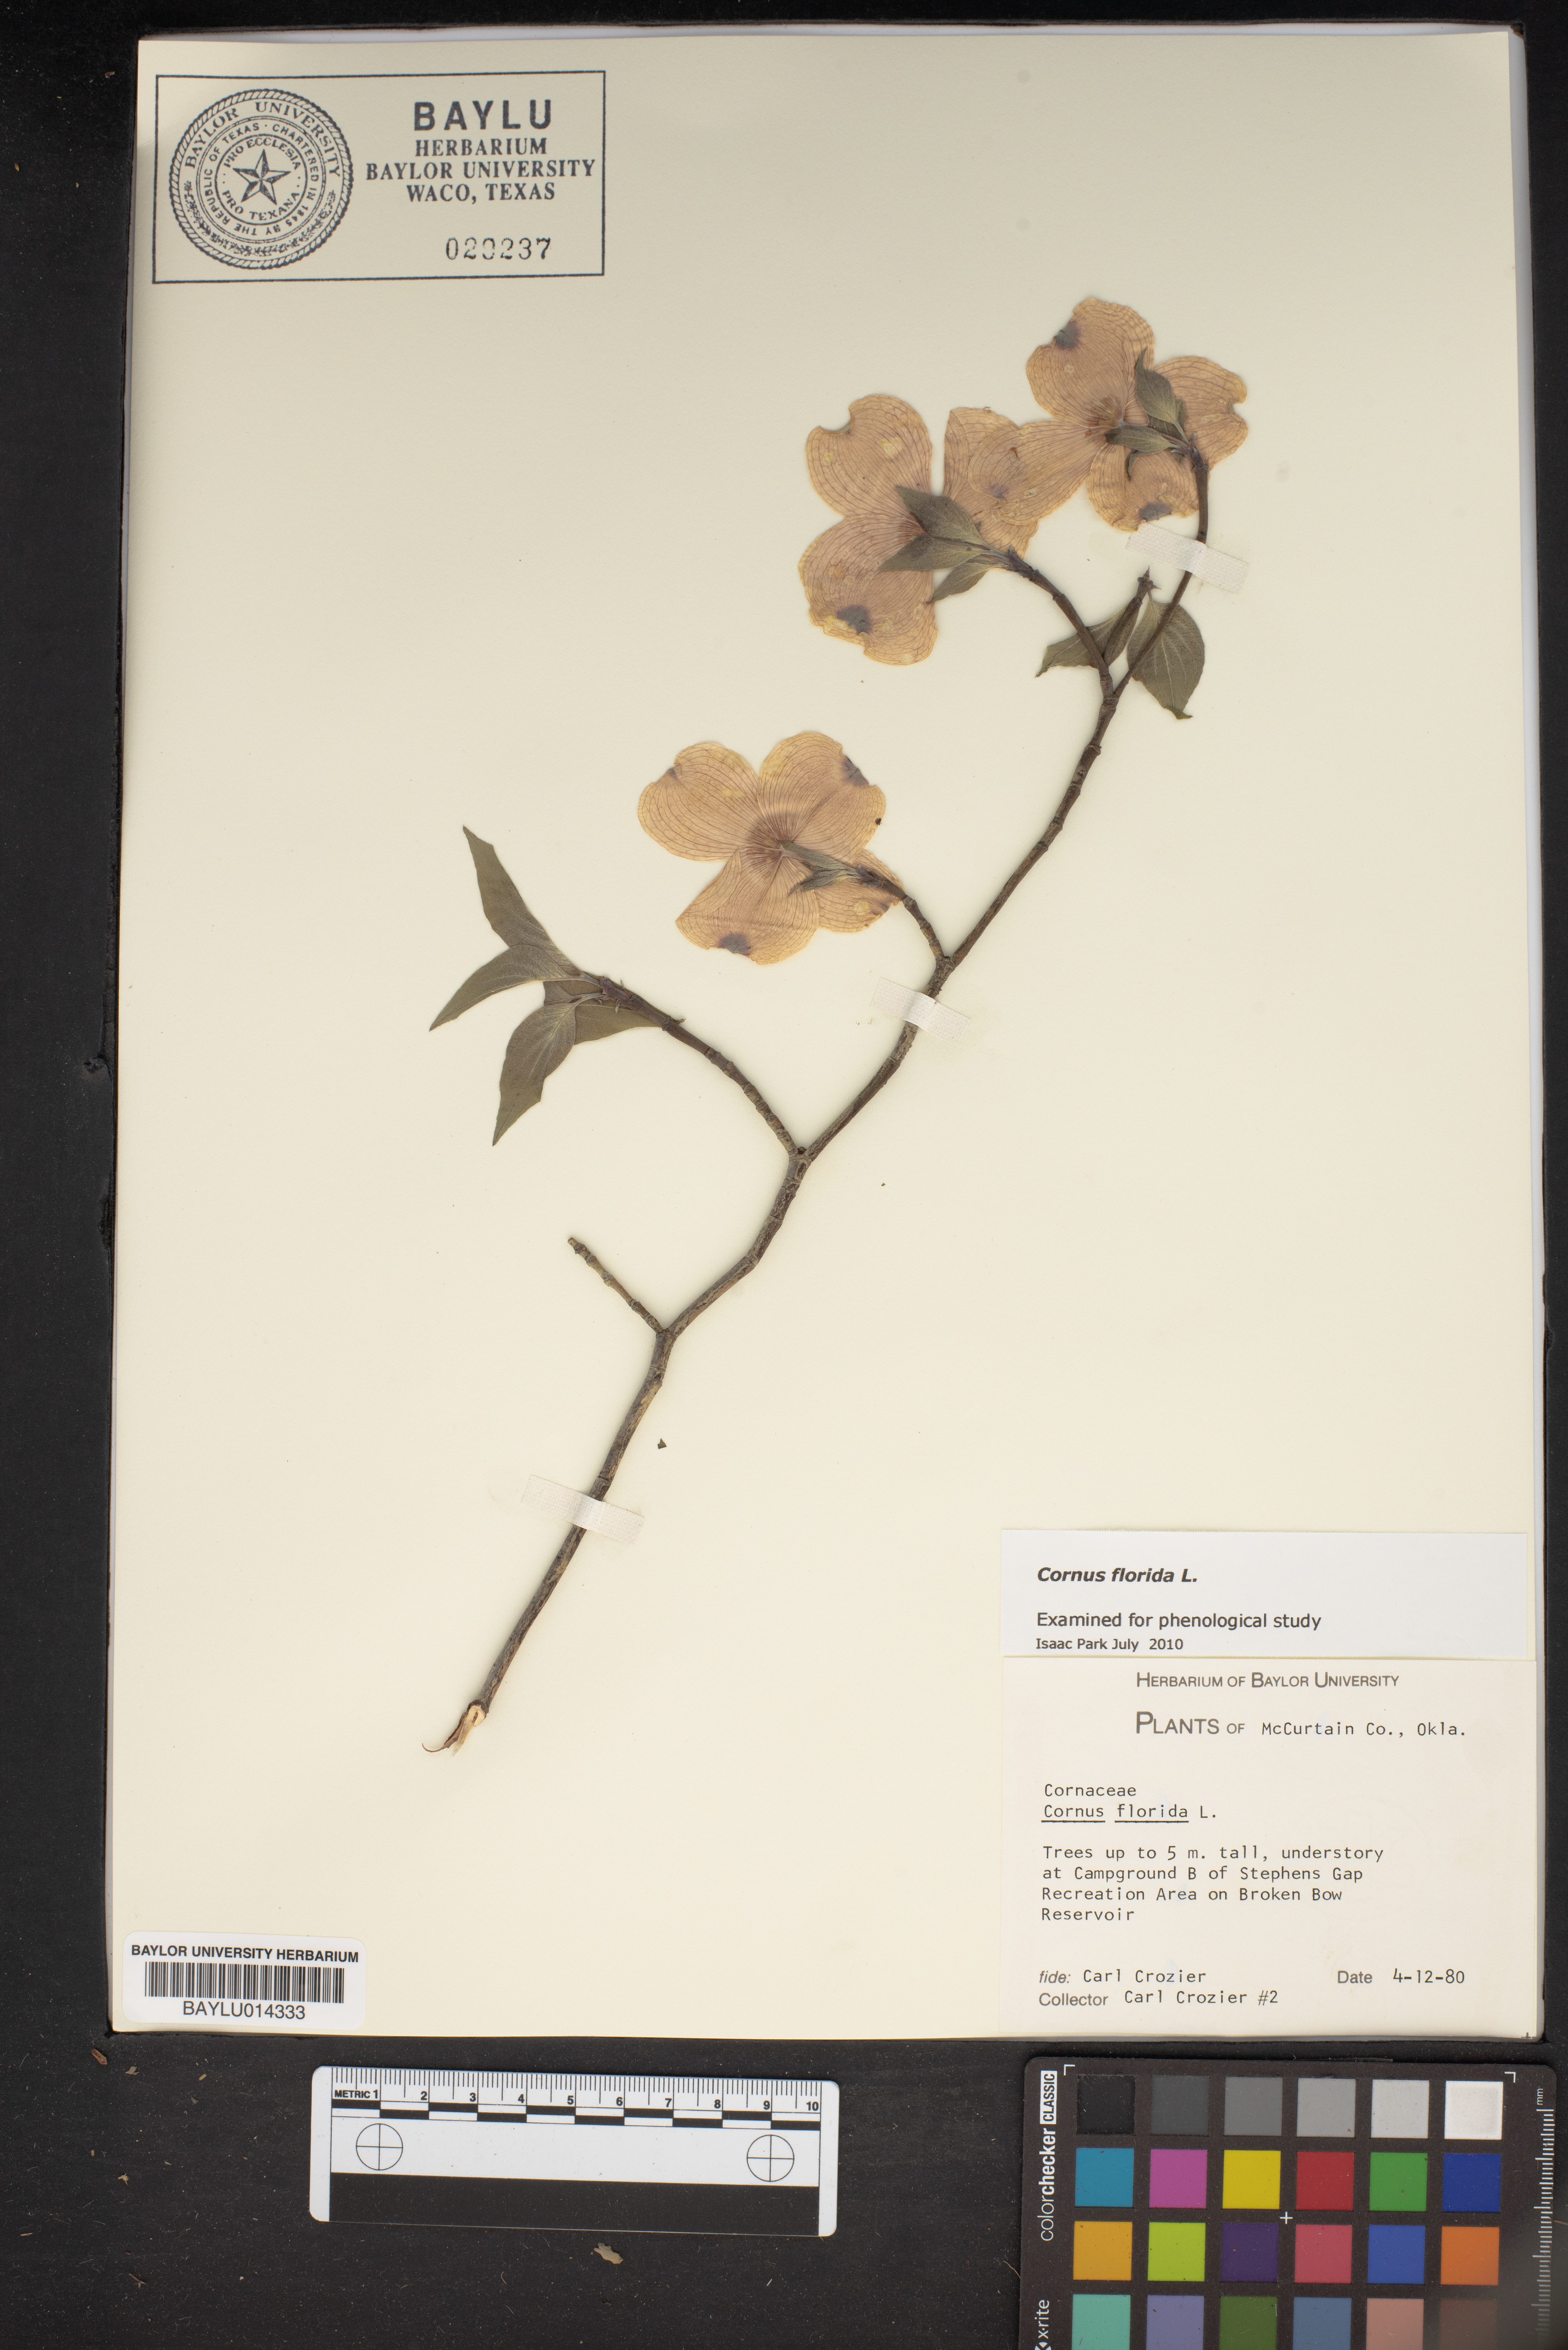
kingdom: Plantae
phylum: Tracheophyta
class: Magnoliopsida
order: Cornales
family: Cornaceae
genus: Cornus
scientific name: Cornus florida
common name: Flowering dogwood
